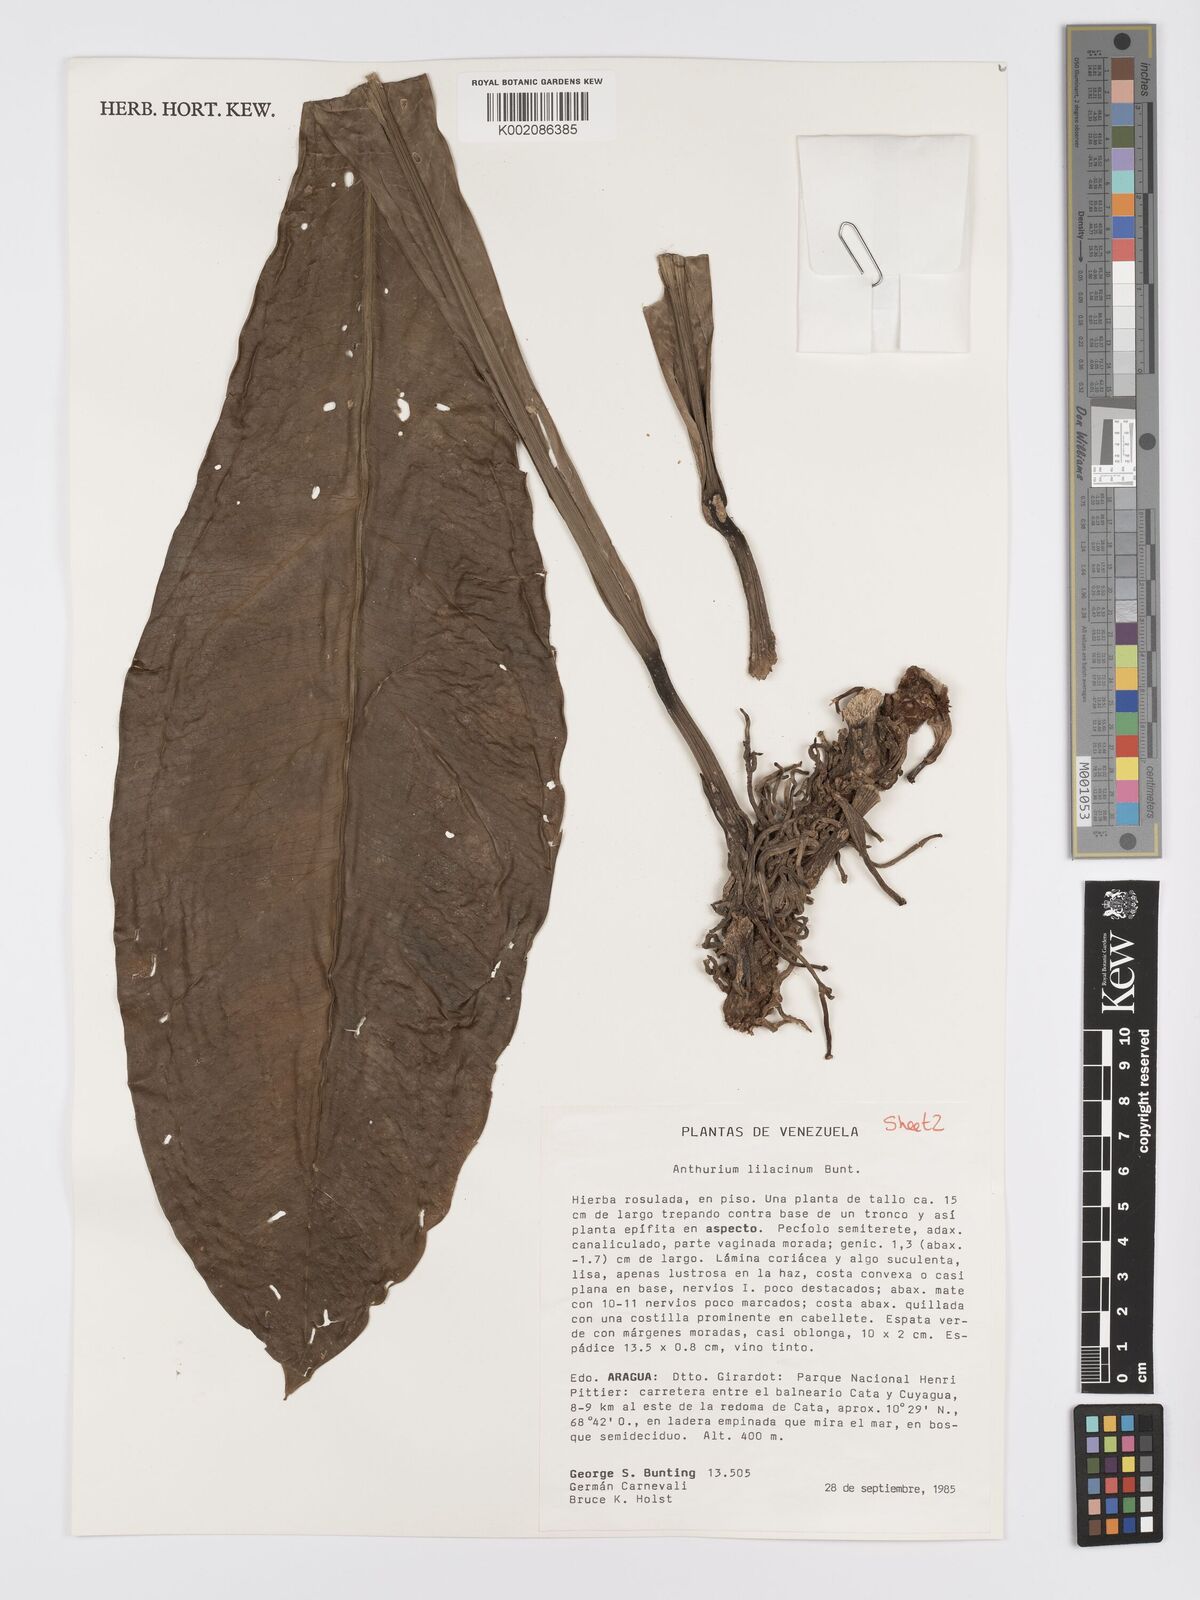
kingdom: Plantae
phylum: Tracheophyta
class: Liliopsida
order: Alismatales
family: Araceae
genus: Anthurium
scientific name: Anthurium lilacinum
